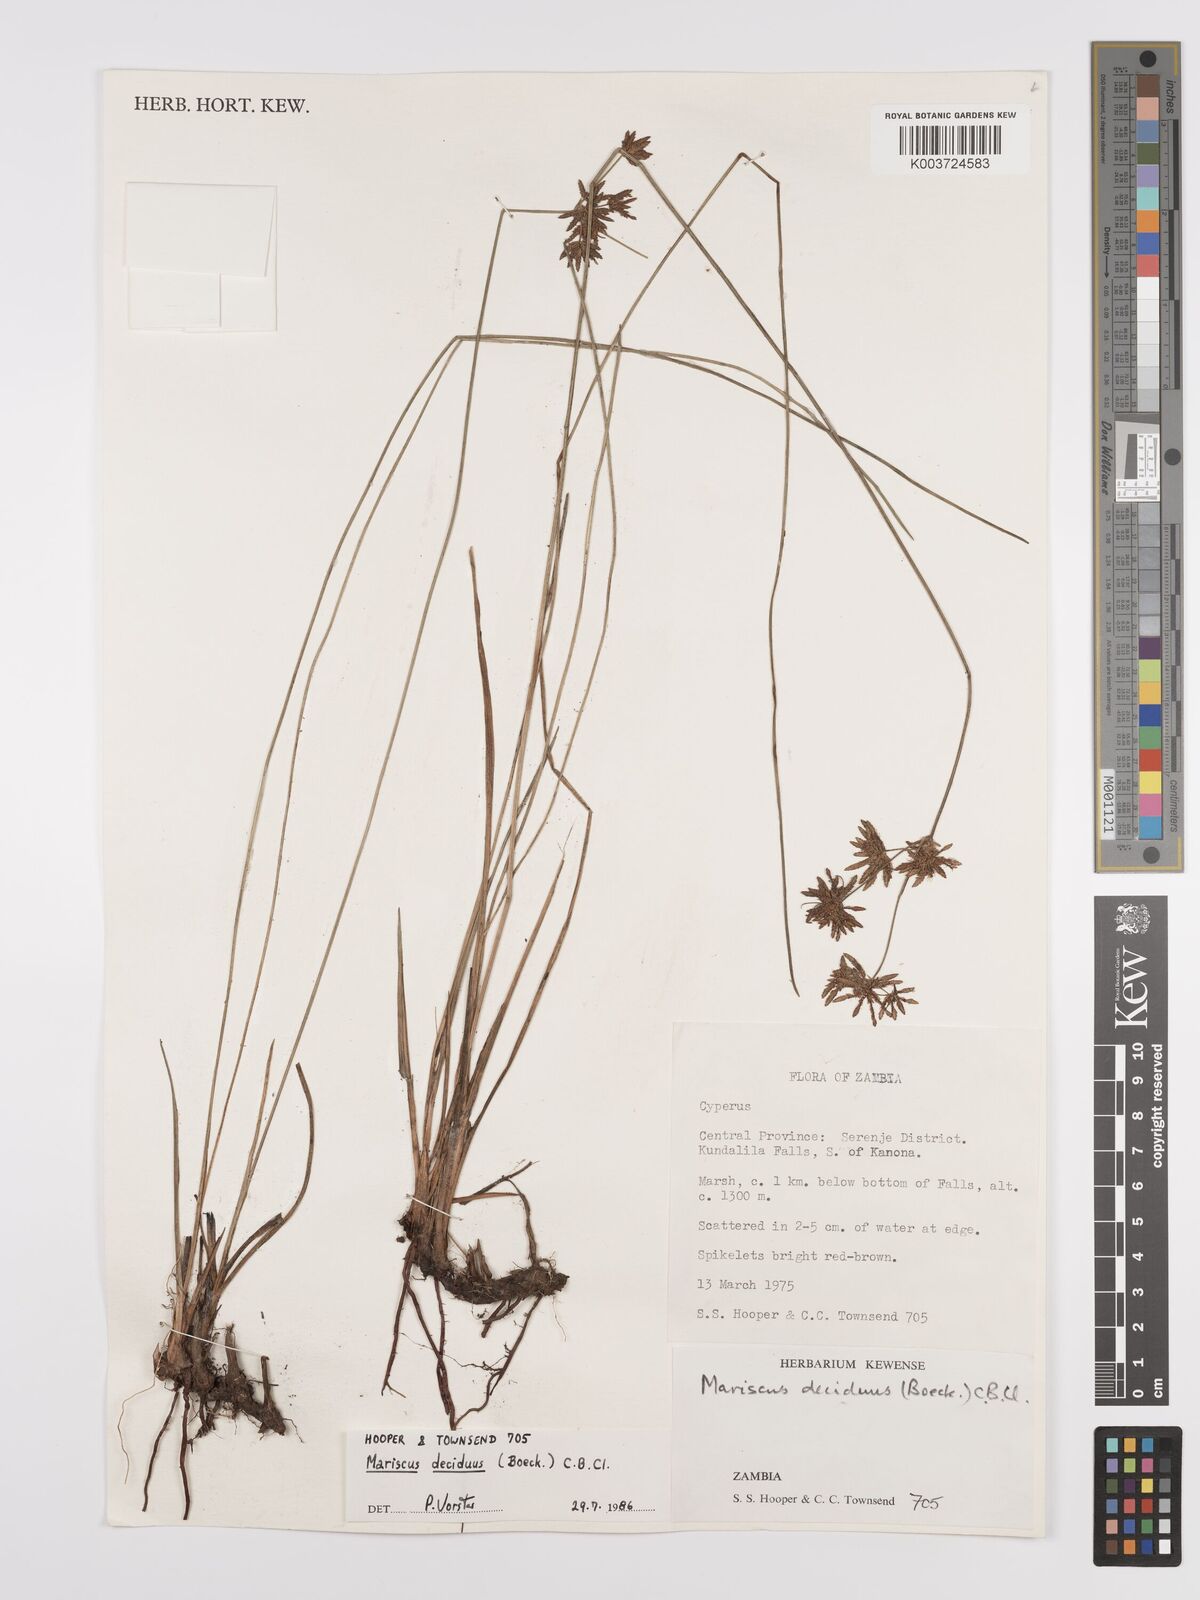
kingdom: Plantae
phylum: Tracheophyta
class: Liliopsida
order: Poales
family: Cyperaceae
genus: Cyperus
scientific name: Cyperus deciduus
